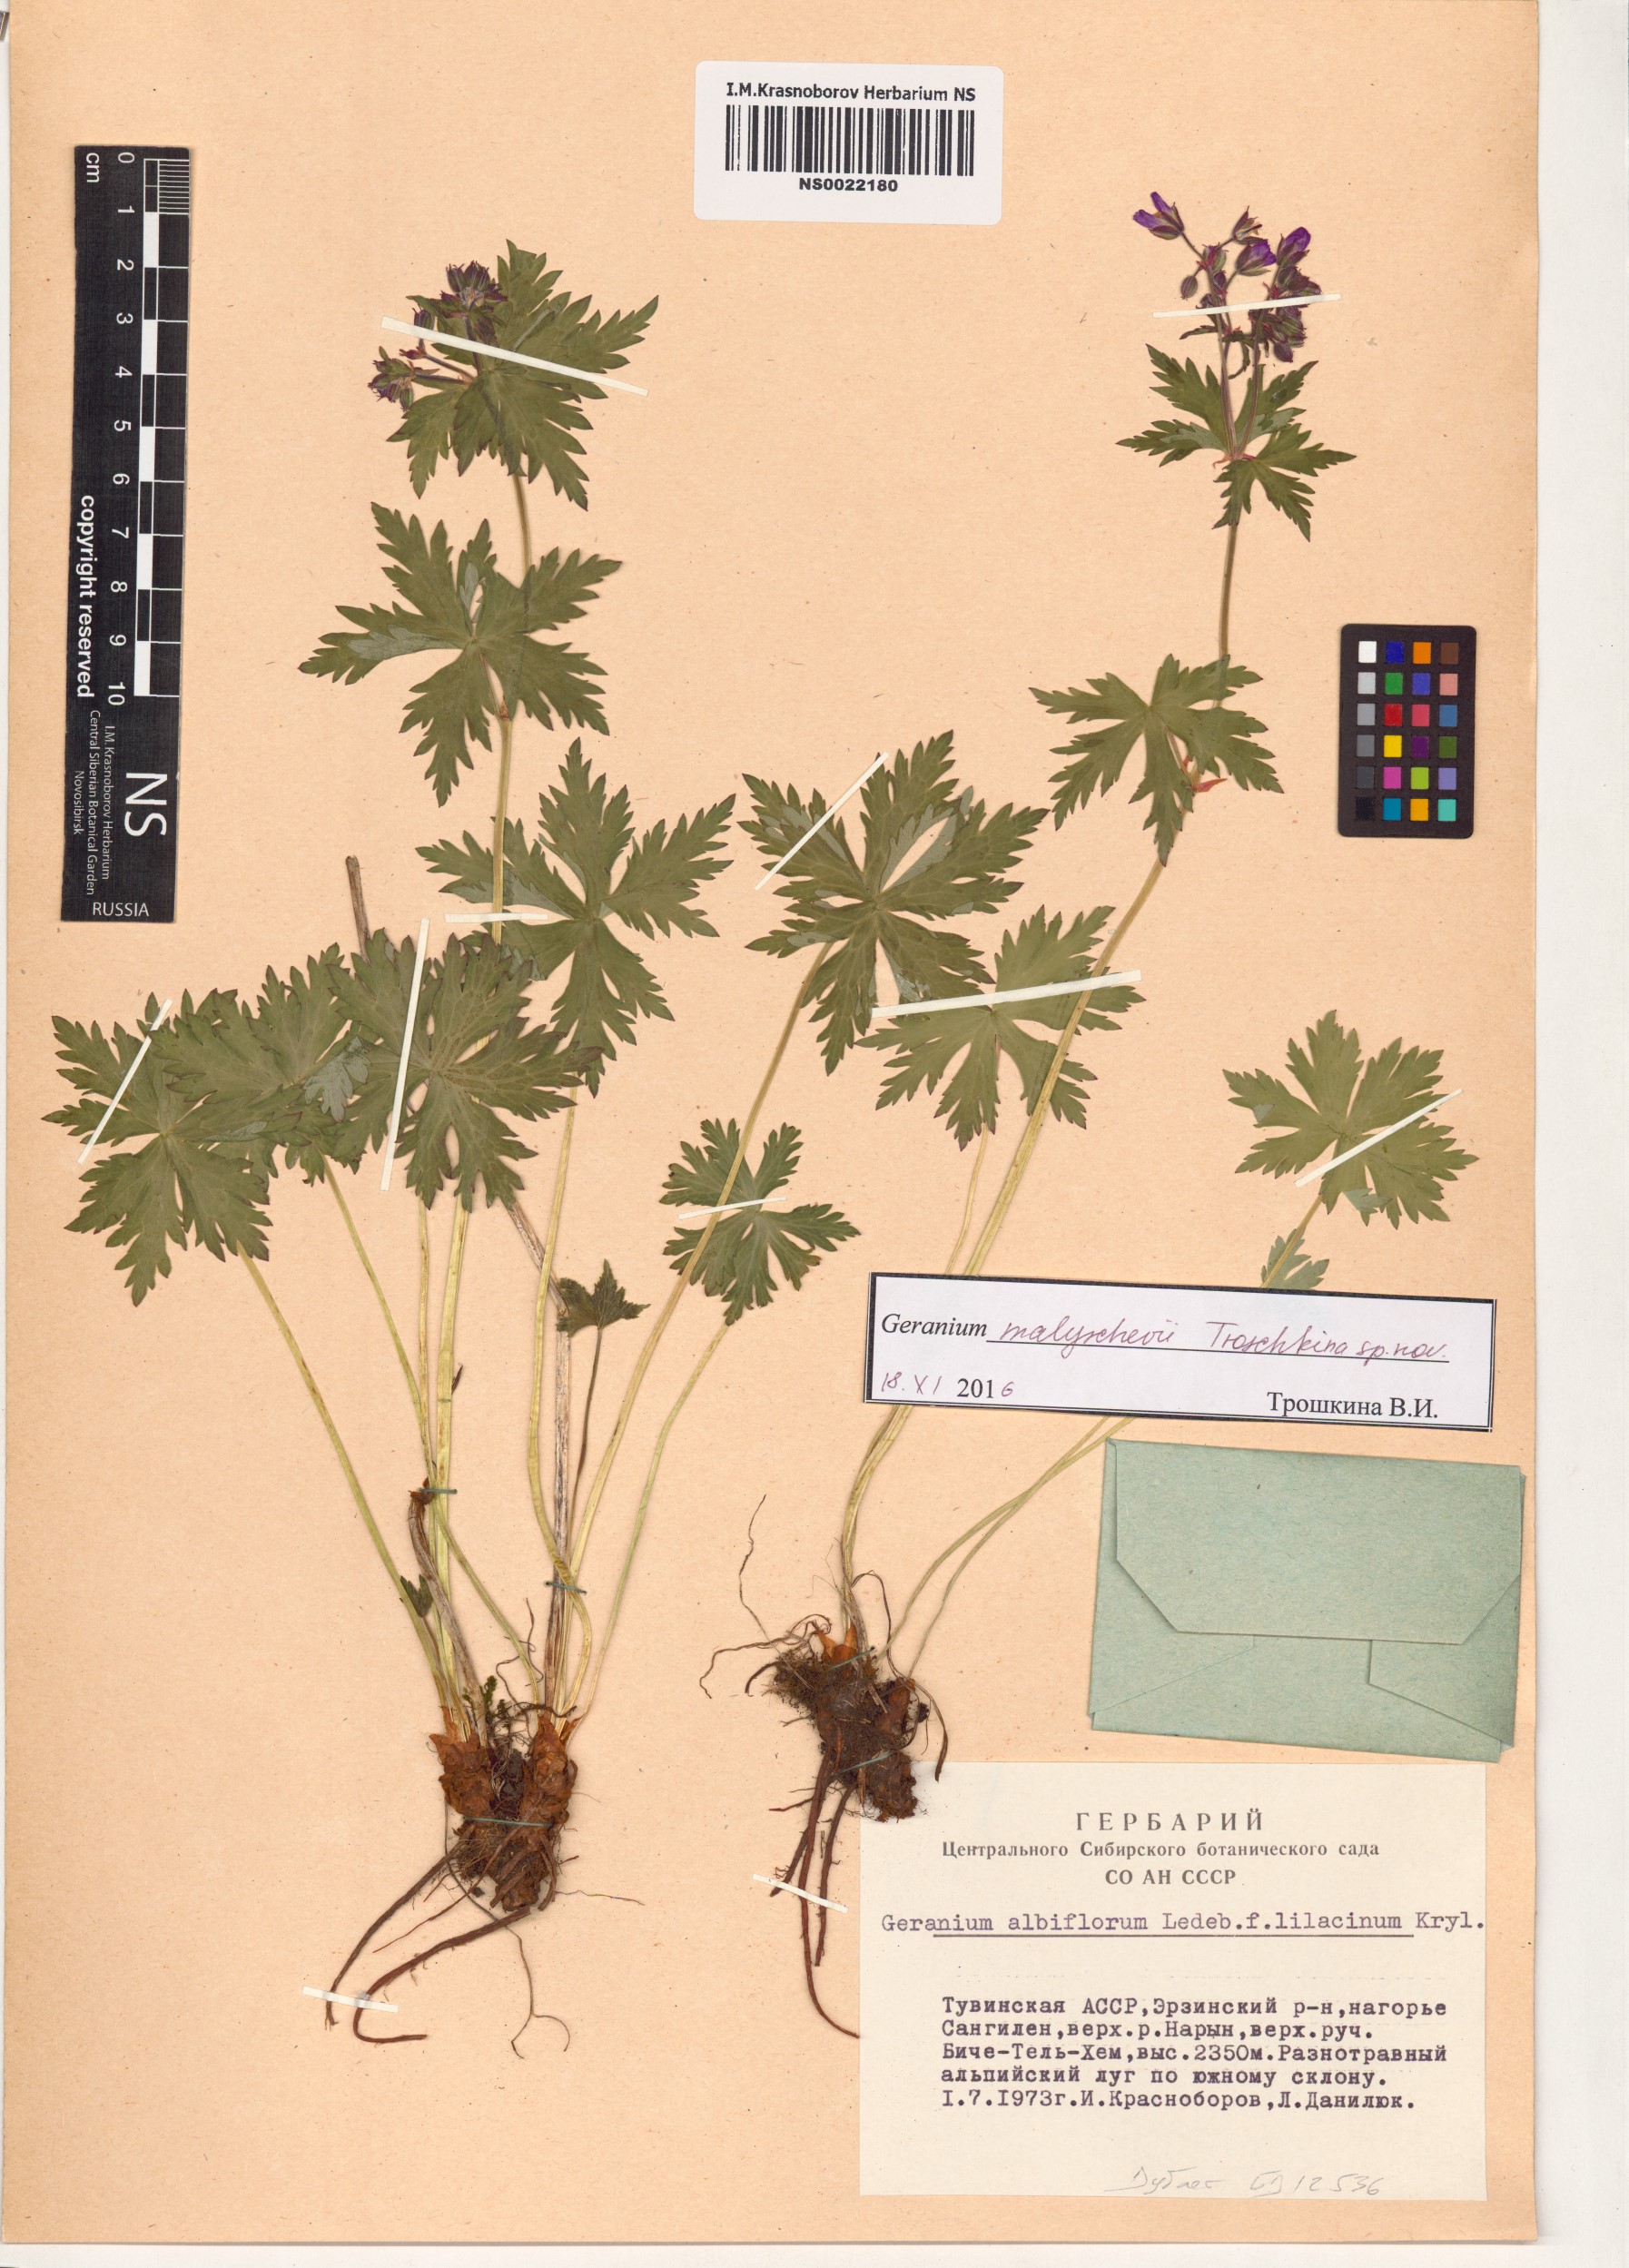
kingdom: Plantae
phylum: Tracheophyta
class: Magnoliopsida
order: Geraniales
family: Geraniaceae
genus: Geranium
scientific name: Geranium malyschevii
